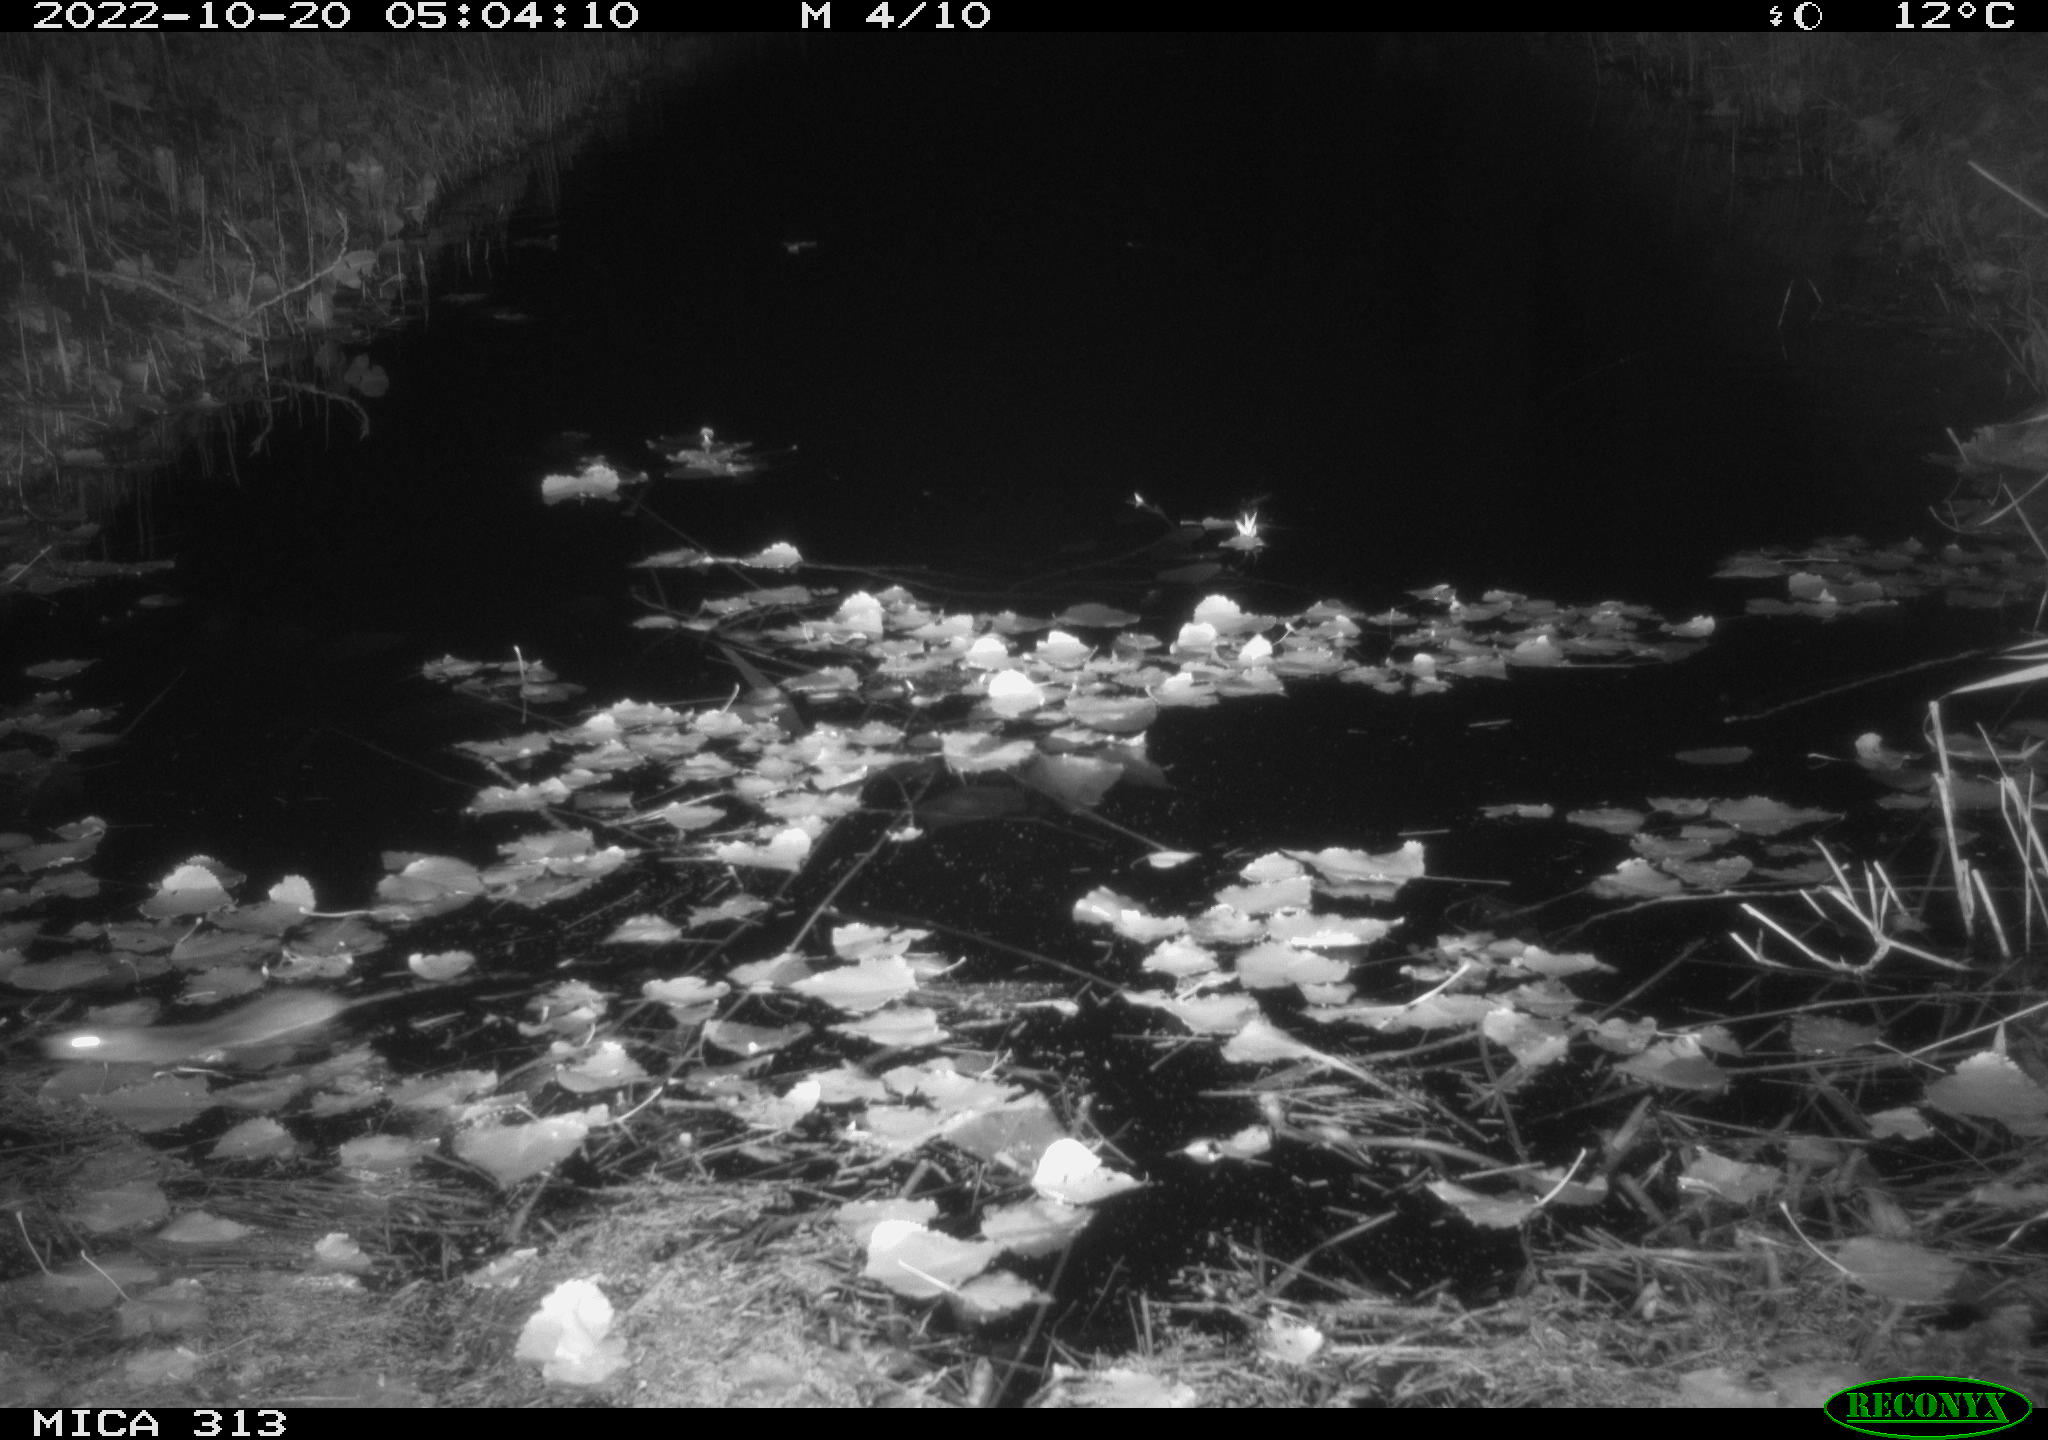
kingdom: Animalia
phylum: Chordata
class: Mammalia
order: Rodentia
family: Muridae
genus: Rattus
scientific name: Rattus norvegicus
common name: Brown rat
